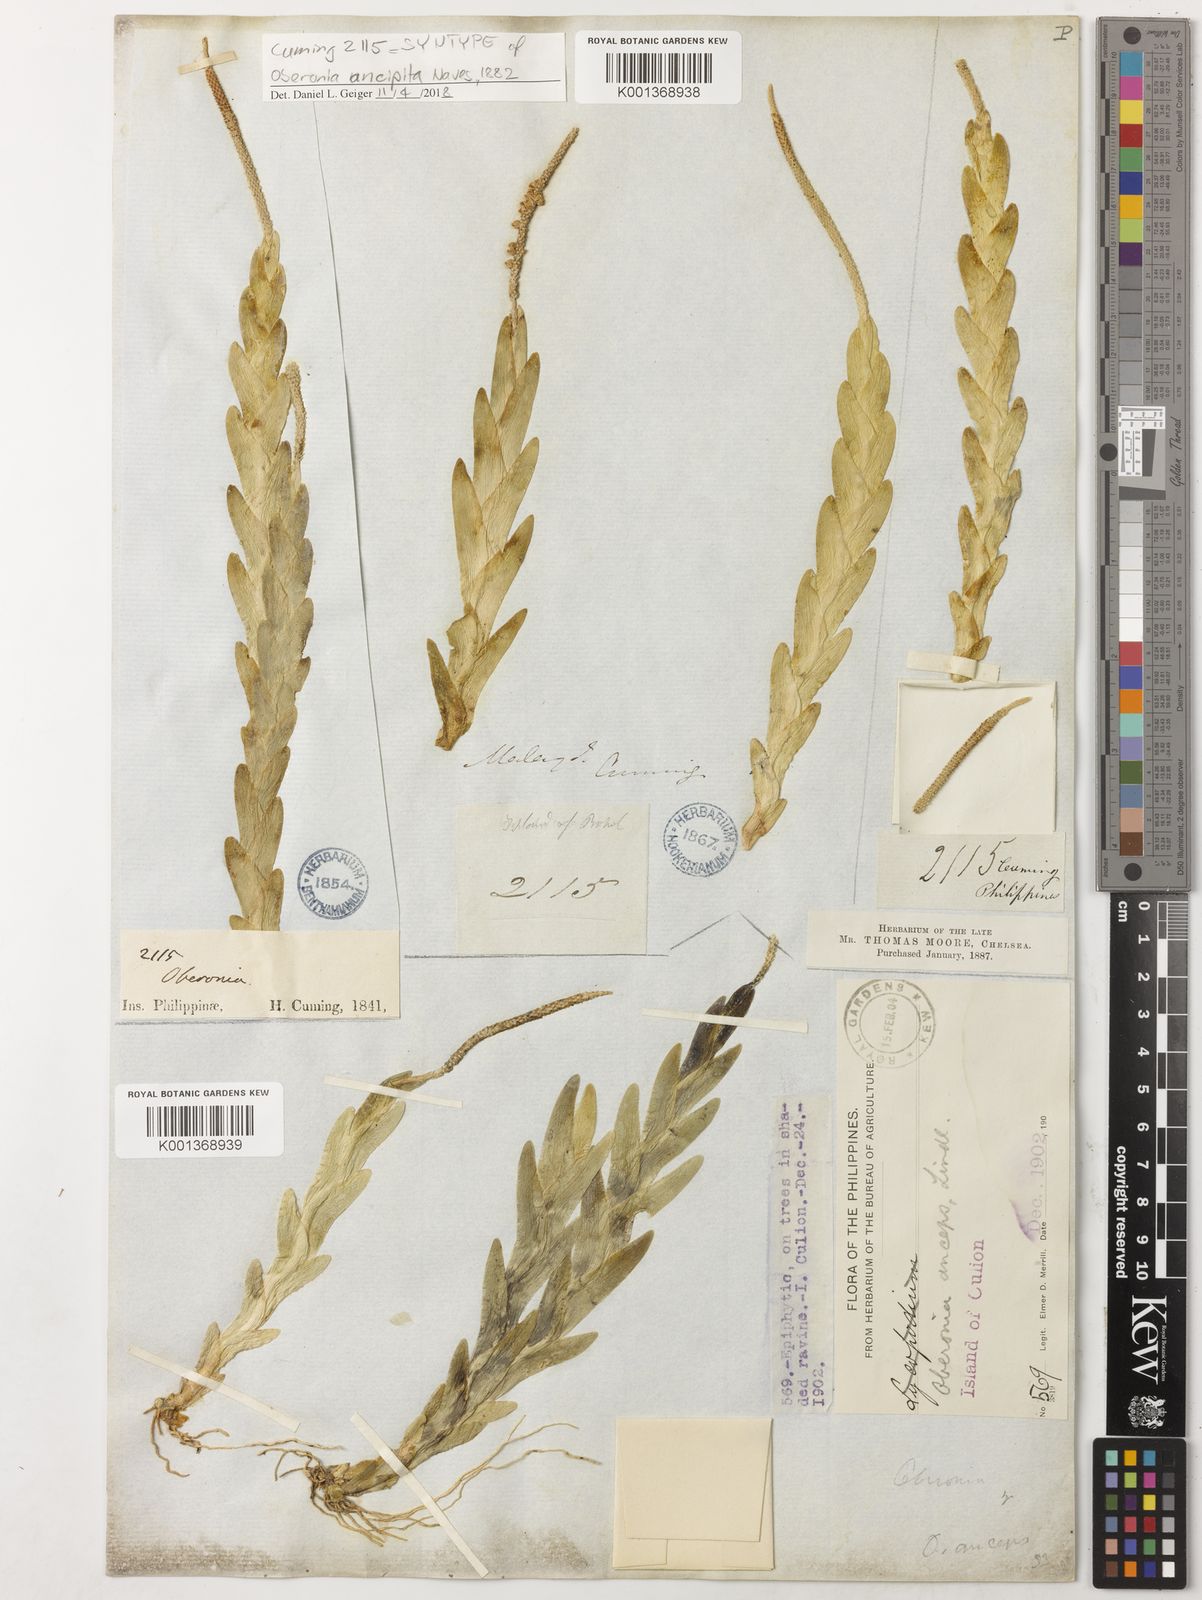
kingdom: Plantae
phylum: Tracheophyta
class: Liliopsida
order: Asparagales
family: Orchidaceae
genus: Oberonia
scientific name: Oberonia
